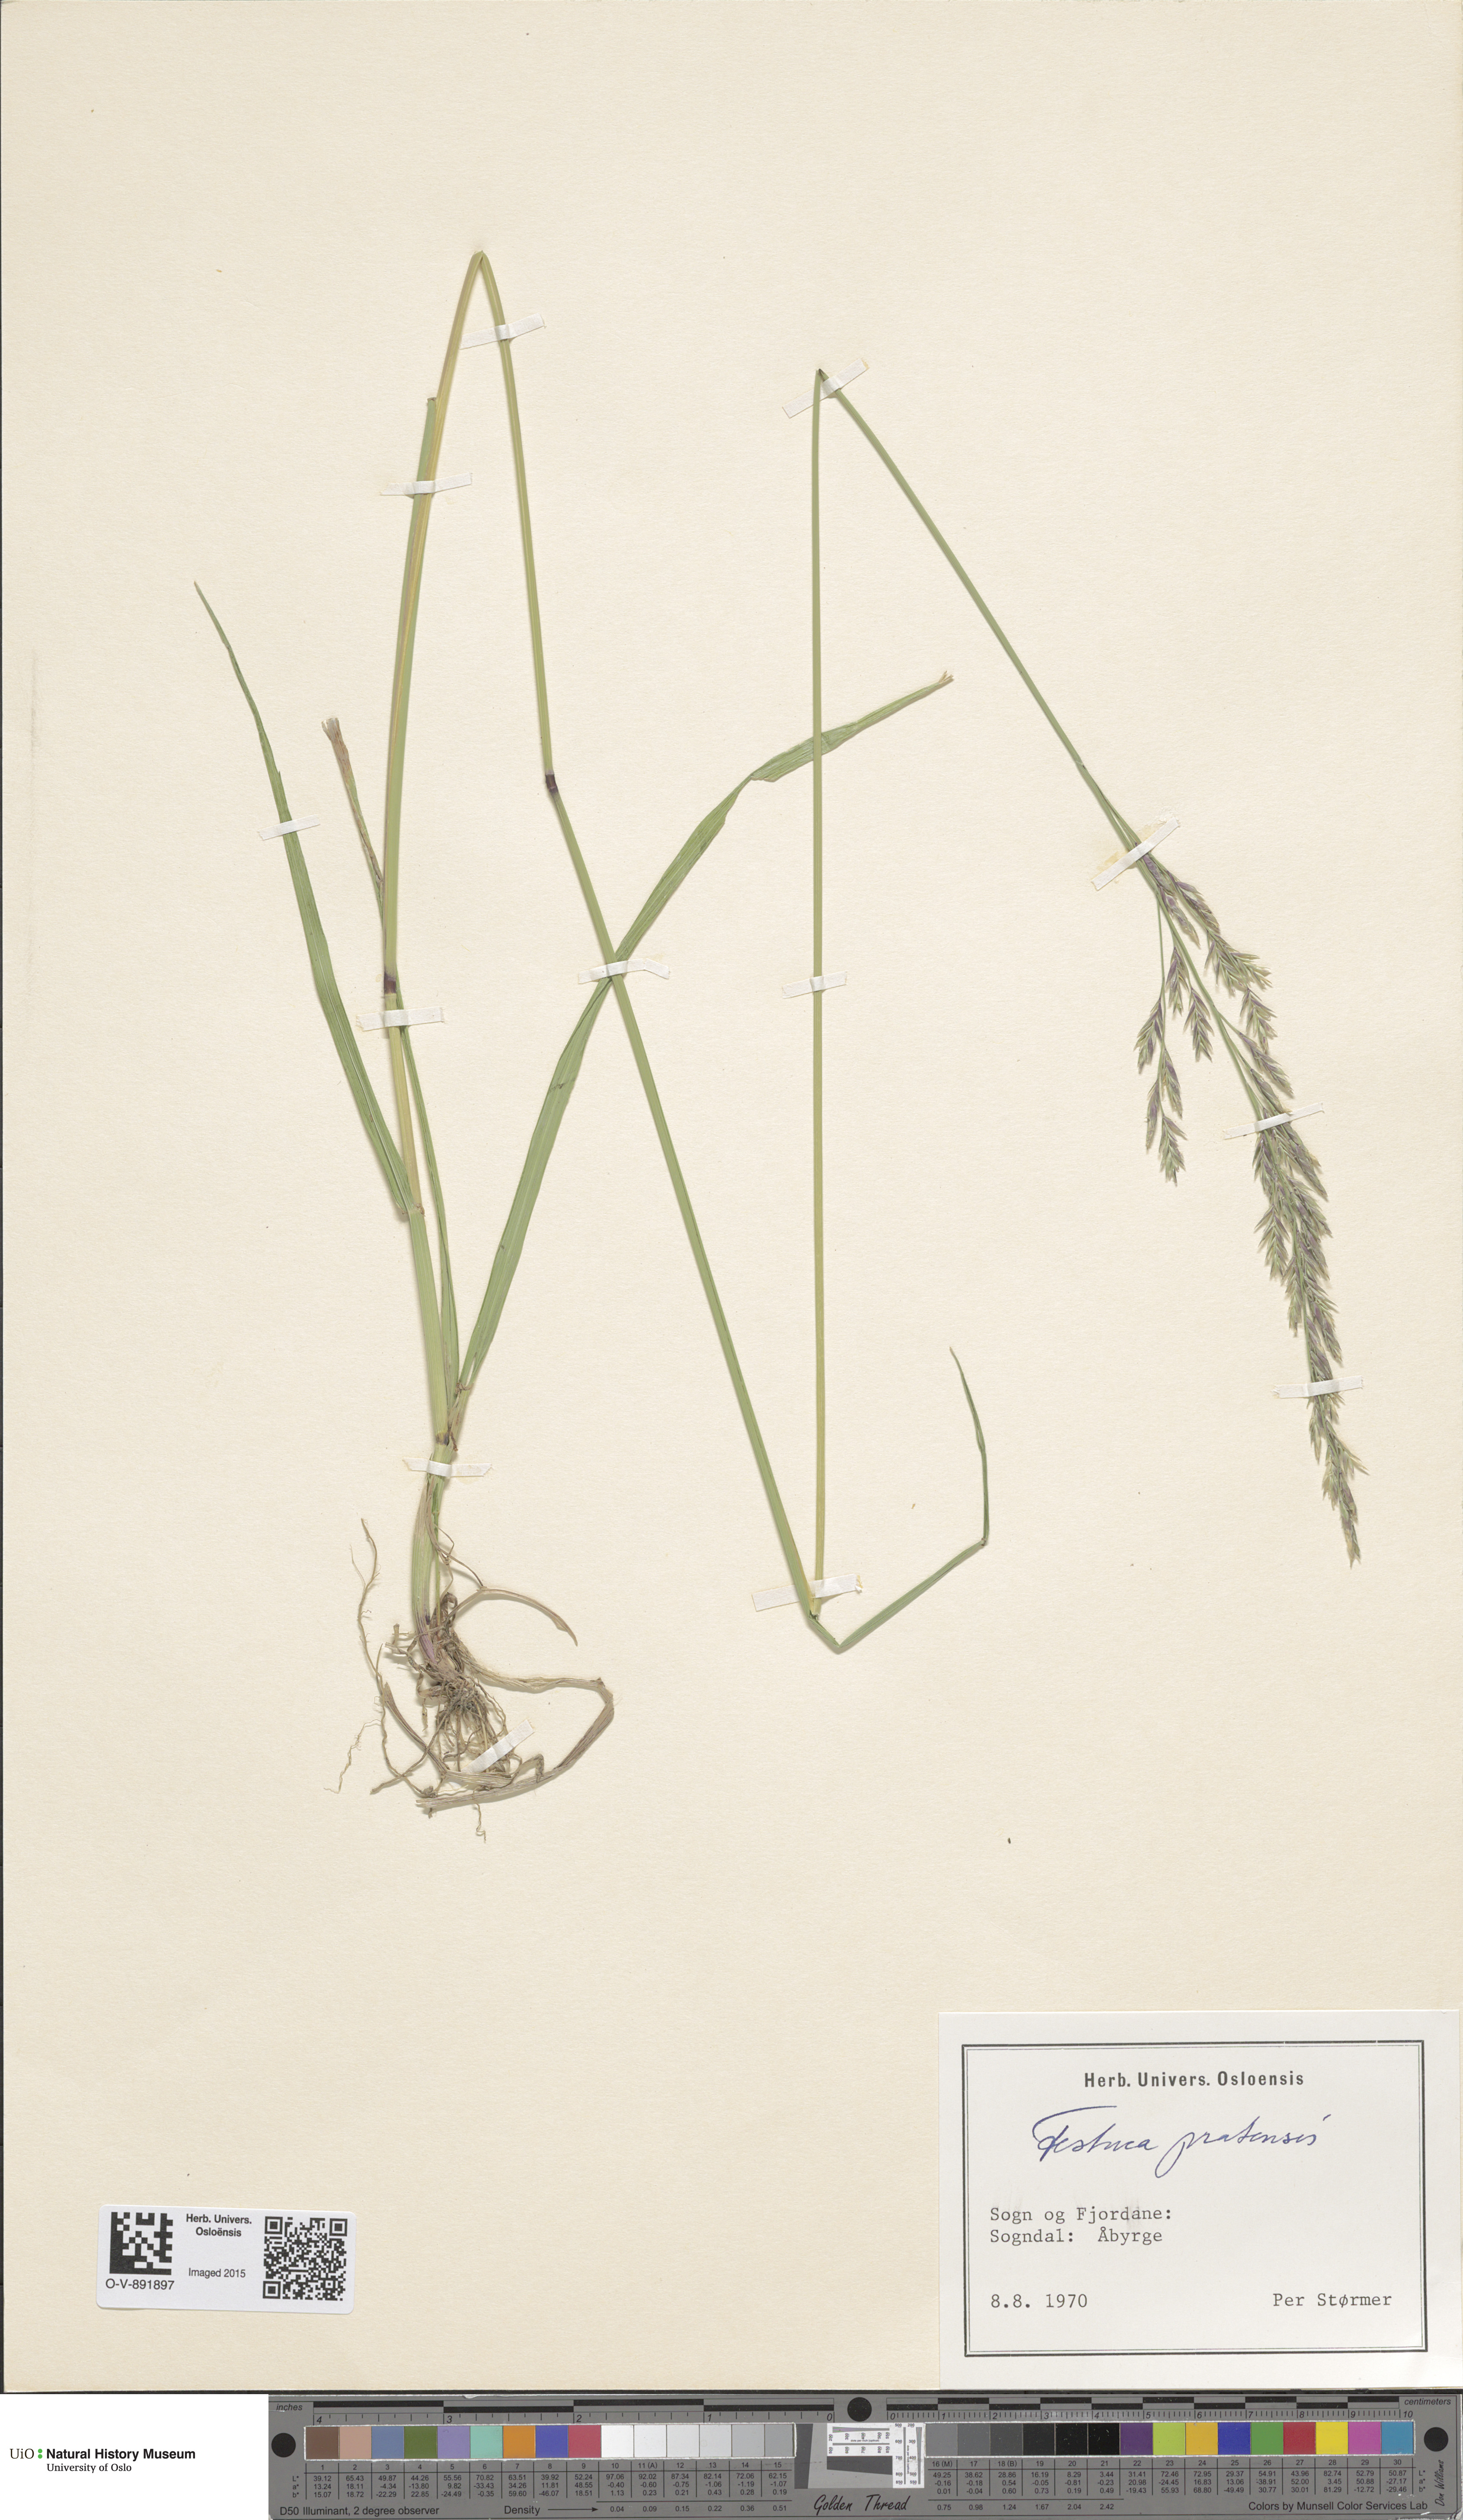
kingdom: Plantae
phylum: Tracheophyta
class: Liliopsida
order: Poales
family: Poaceae
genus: Lolium
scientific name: Lolium pratense
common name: Dover grass
